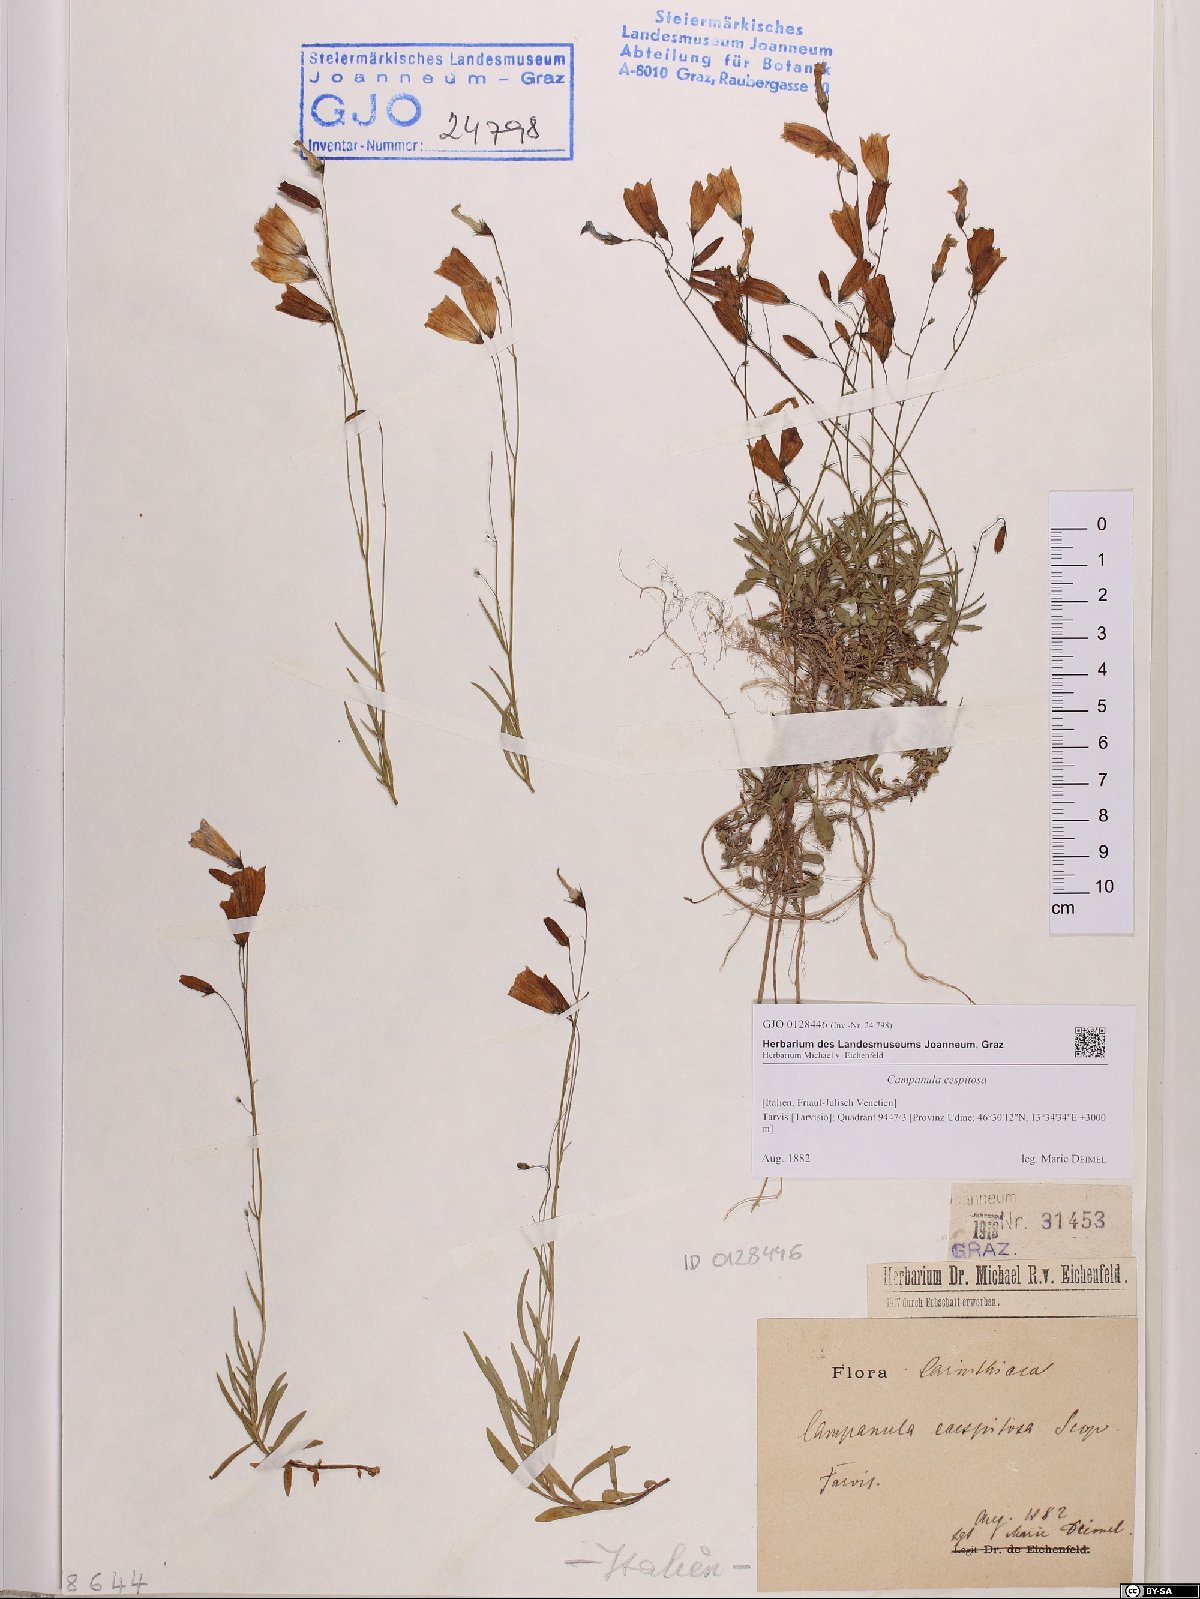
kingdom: Plantae
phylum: Tracheophyta
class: Magnoliopsida
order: Asterales
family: Campanulaceae
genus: Campanula
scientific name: Campanula cespitosa
